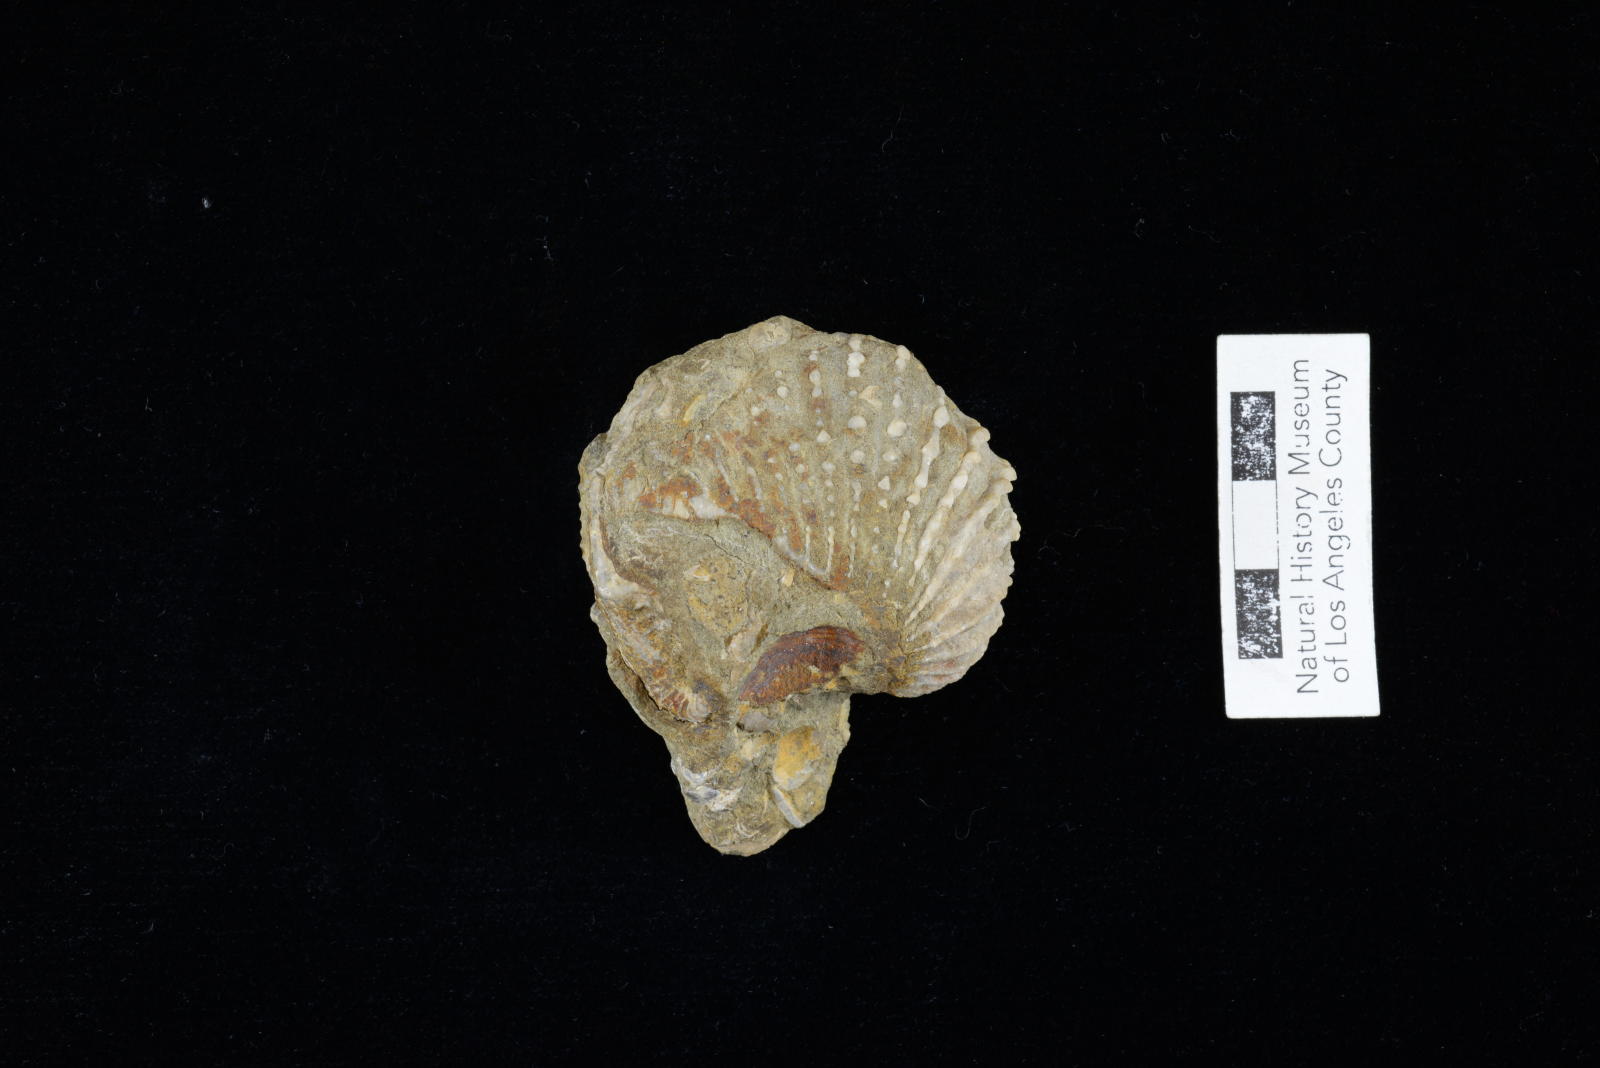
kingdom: Animalia
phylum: Mollusca
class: Bivalvia
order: Trigoniida
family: Pterotrigoniidae
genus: Notoscabrotrigonia
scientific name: Notoscabrotrigonia klamathonia
